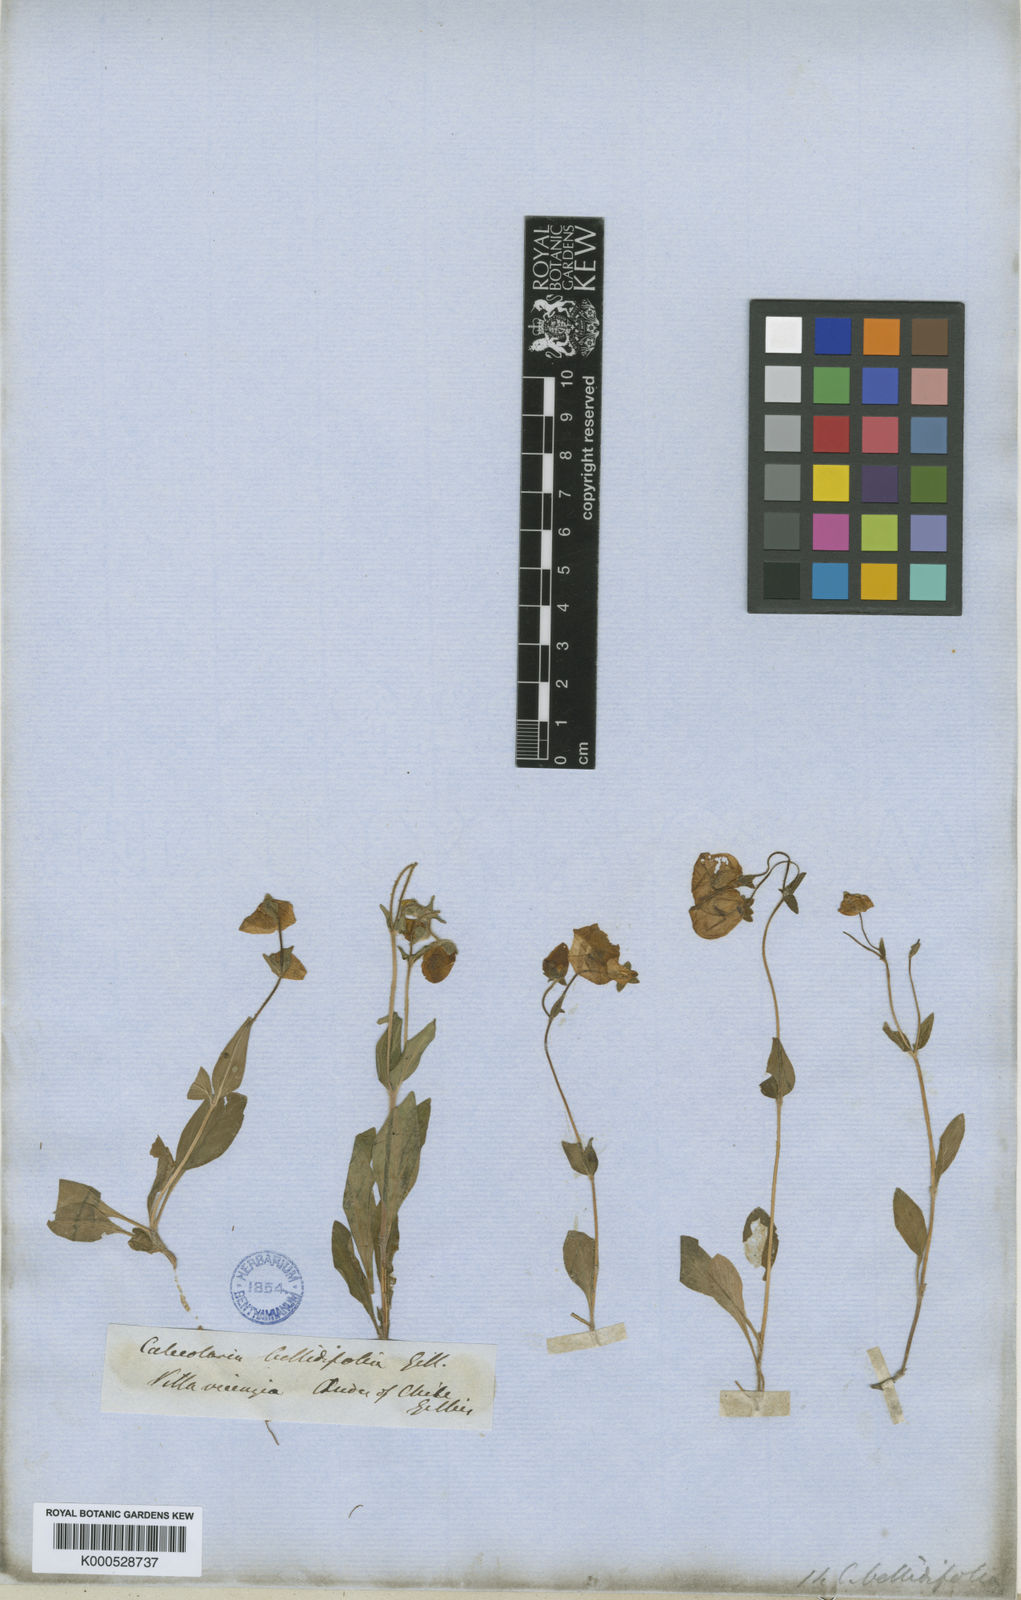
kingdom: Plantae
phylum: Tracheophyta
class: Magnoliopsida
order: Lamiales
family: Calceolariaceae
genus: Calceolaria
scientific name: Calceolaria
